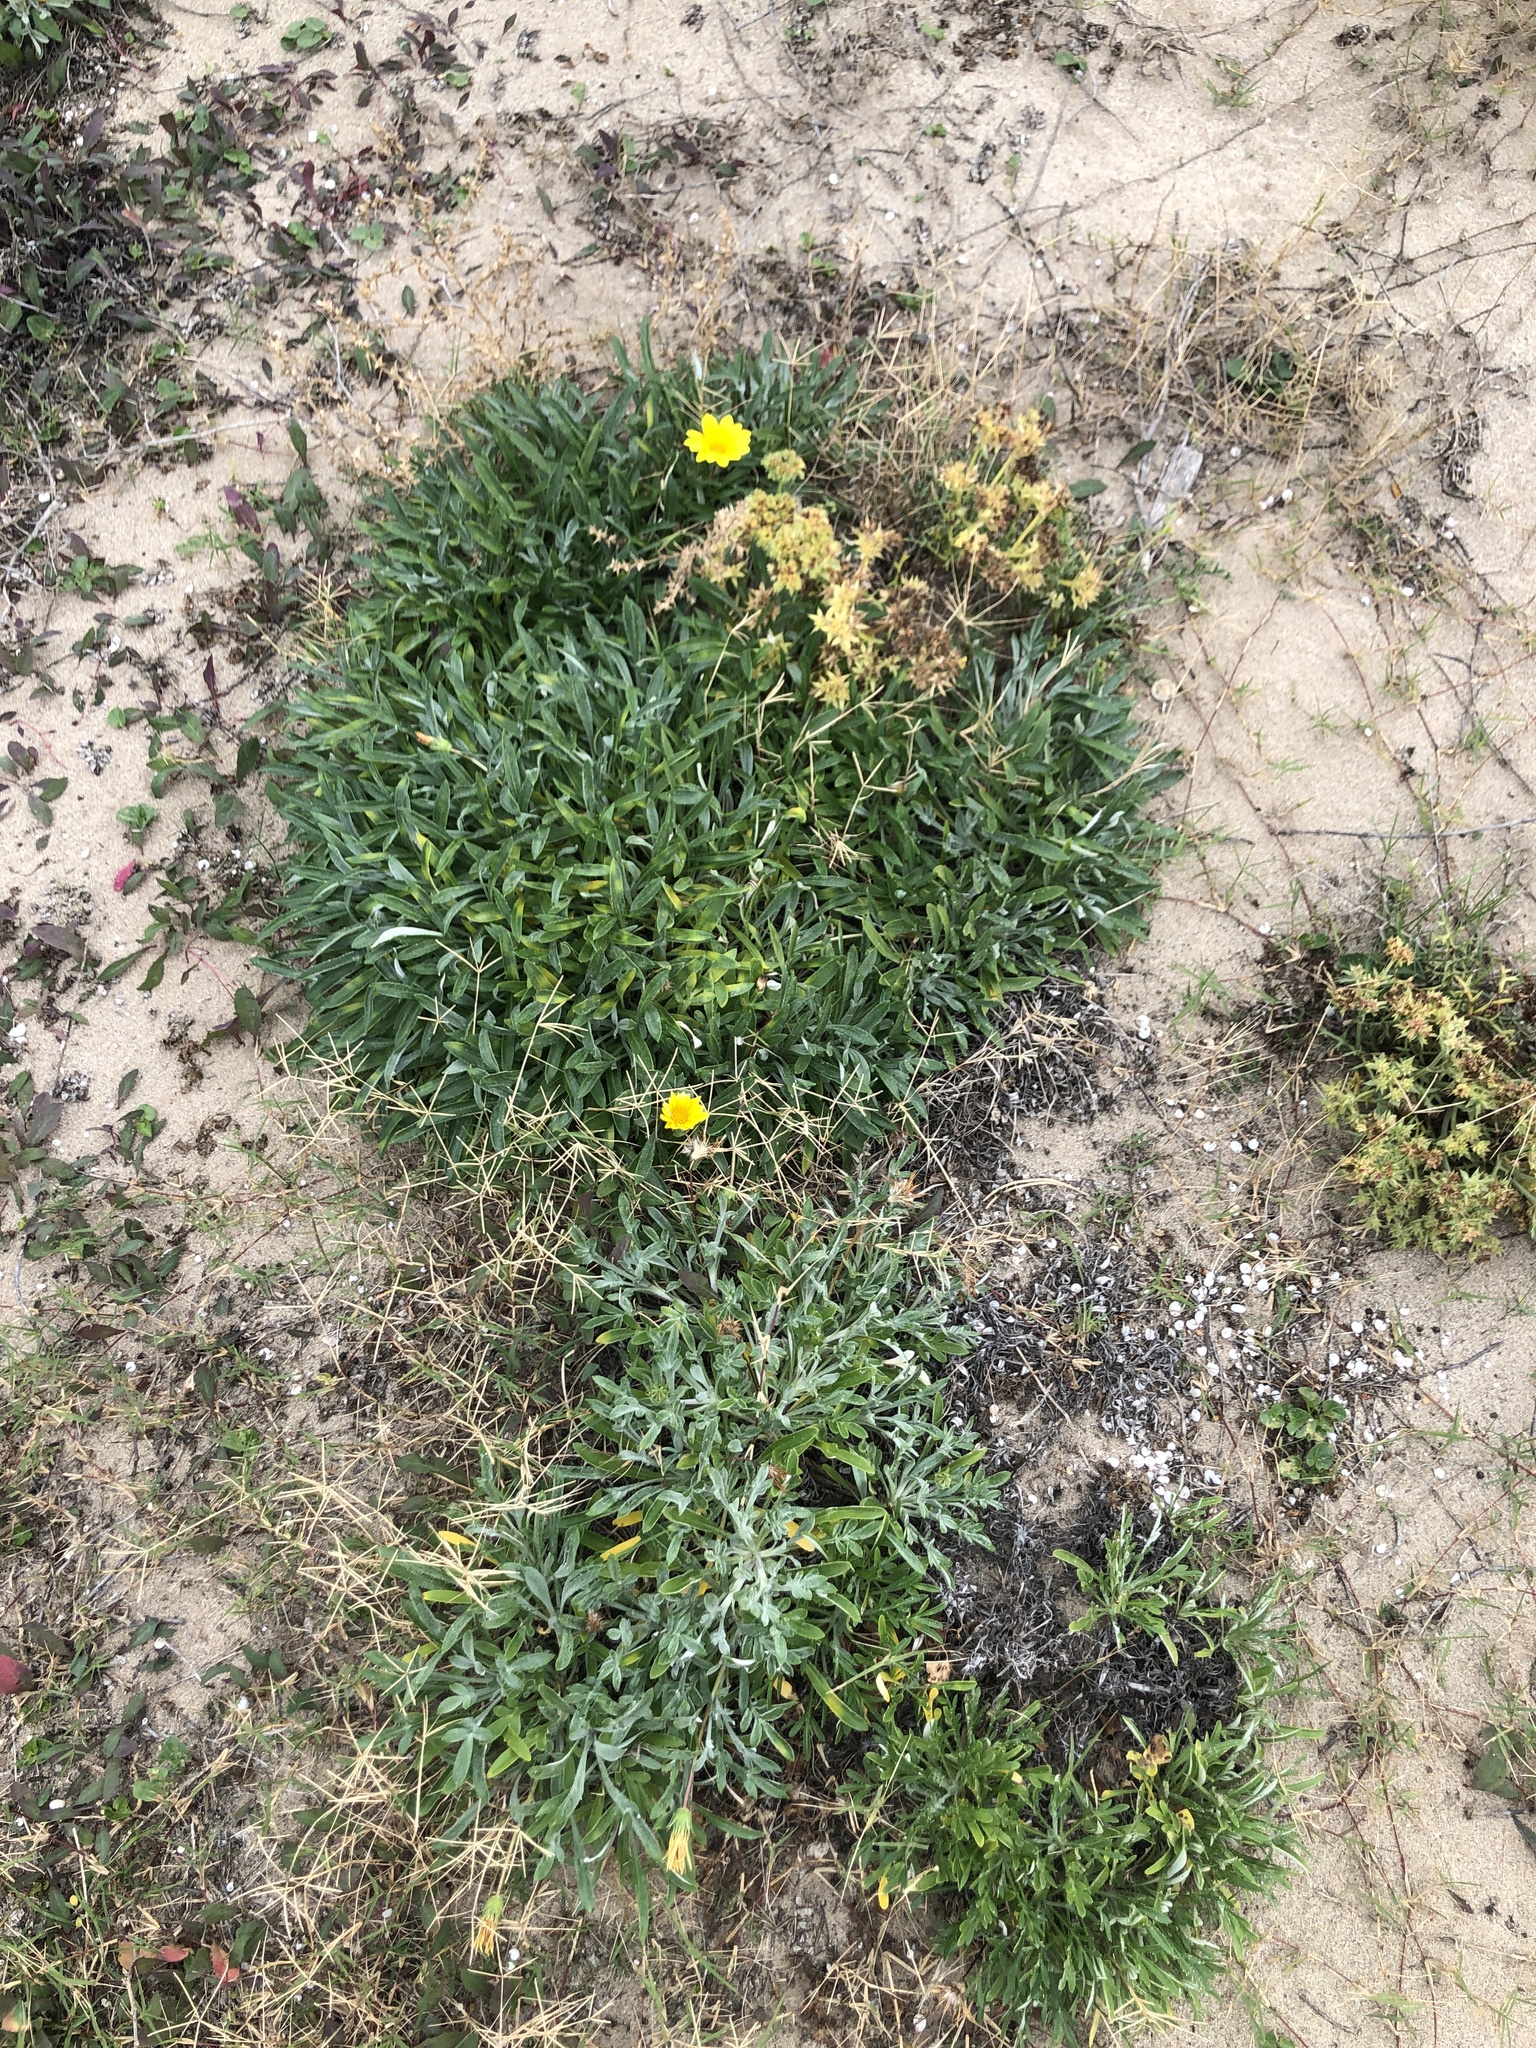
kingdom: Plantae
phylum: Tracheophyta
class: Magnoliopsida
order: Asterales
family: Asteraceae
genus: Gazania
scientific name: Gazania rigens
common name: Treasureflower
